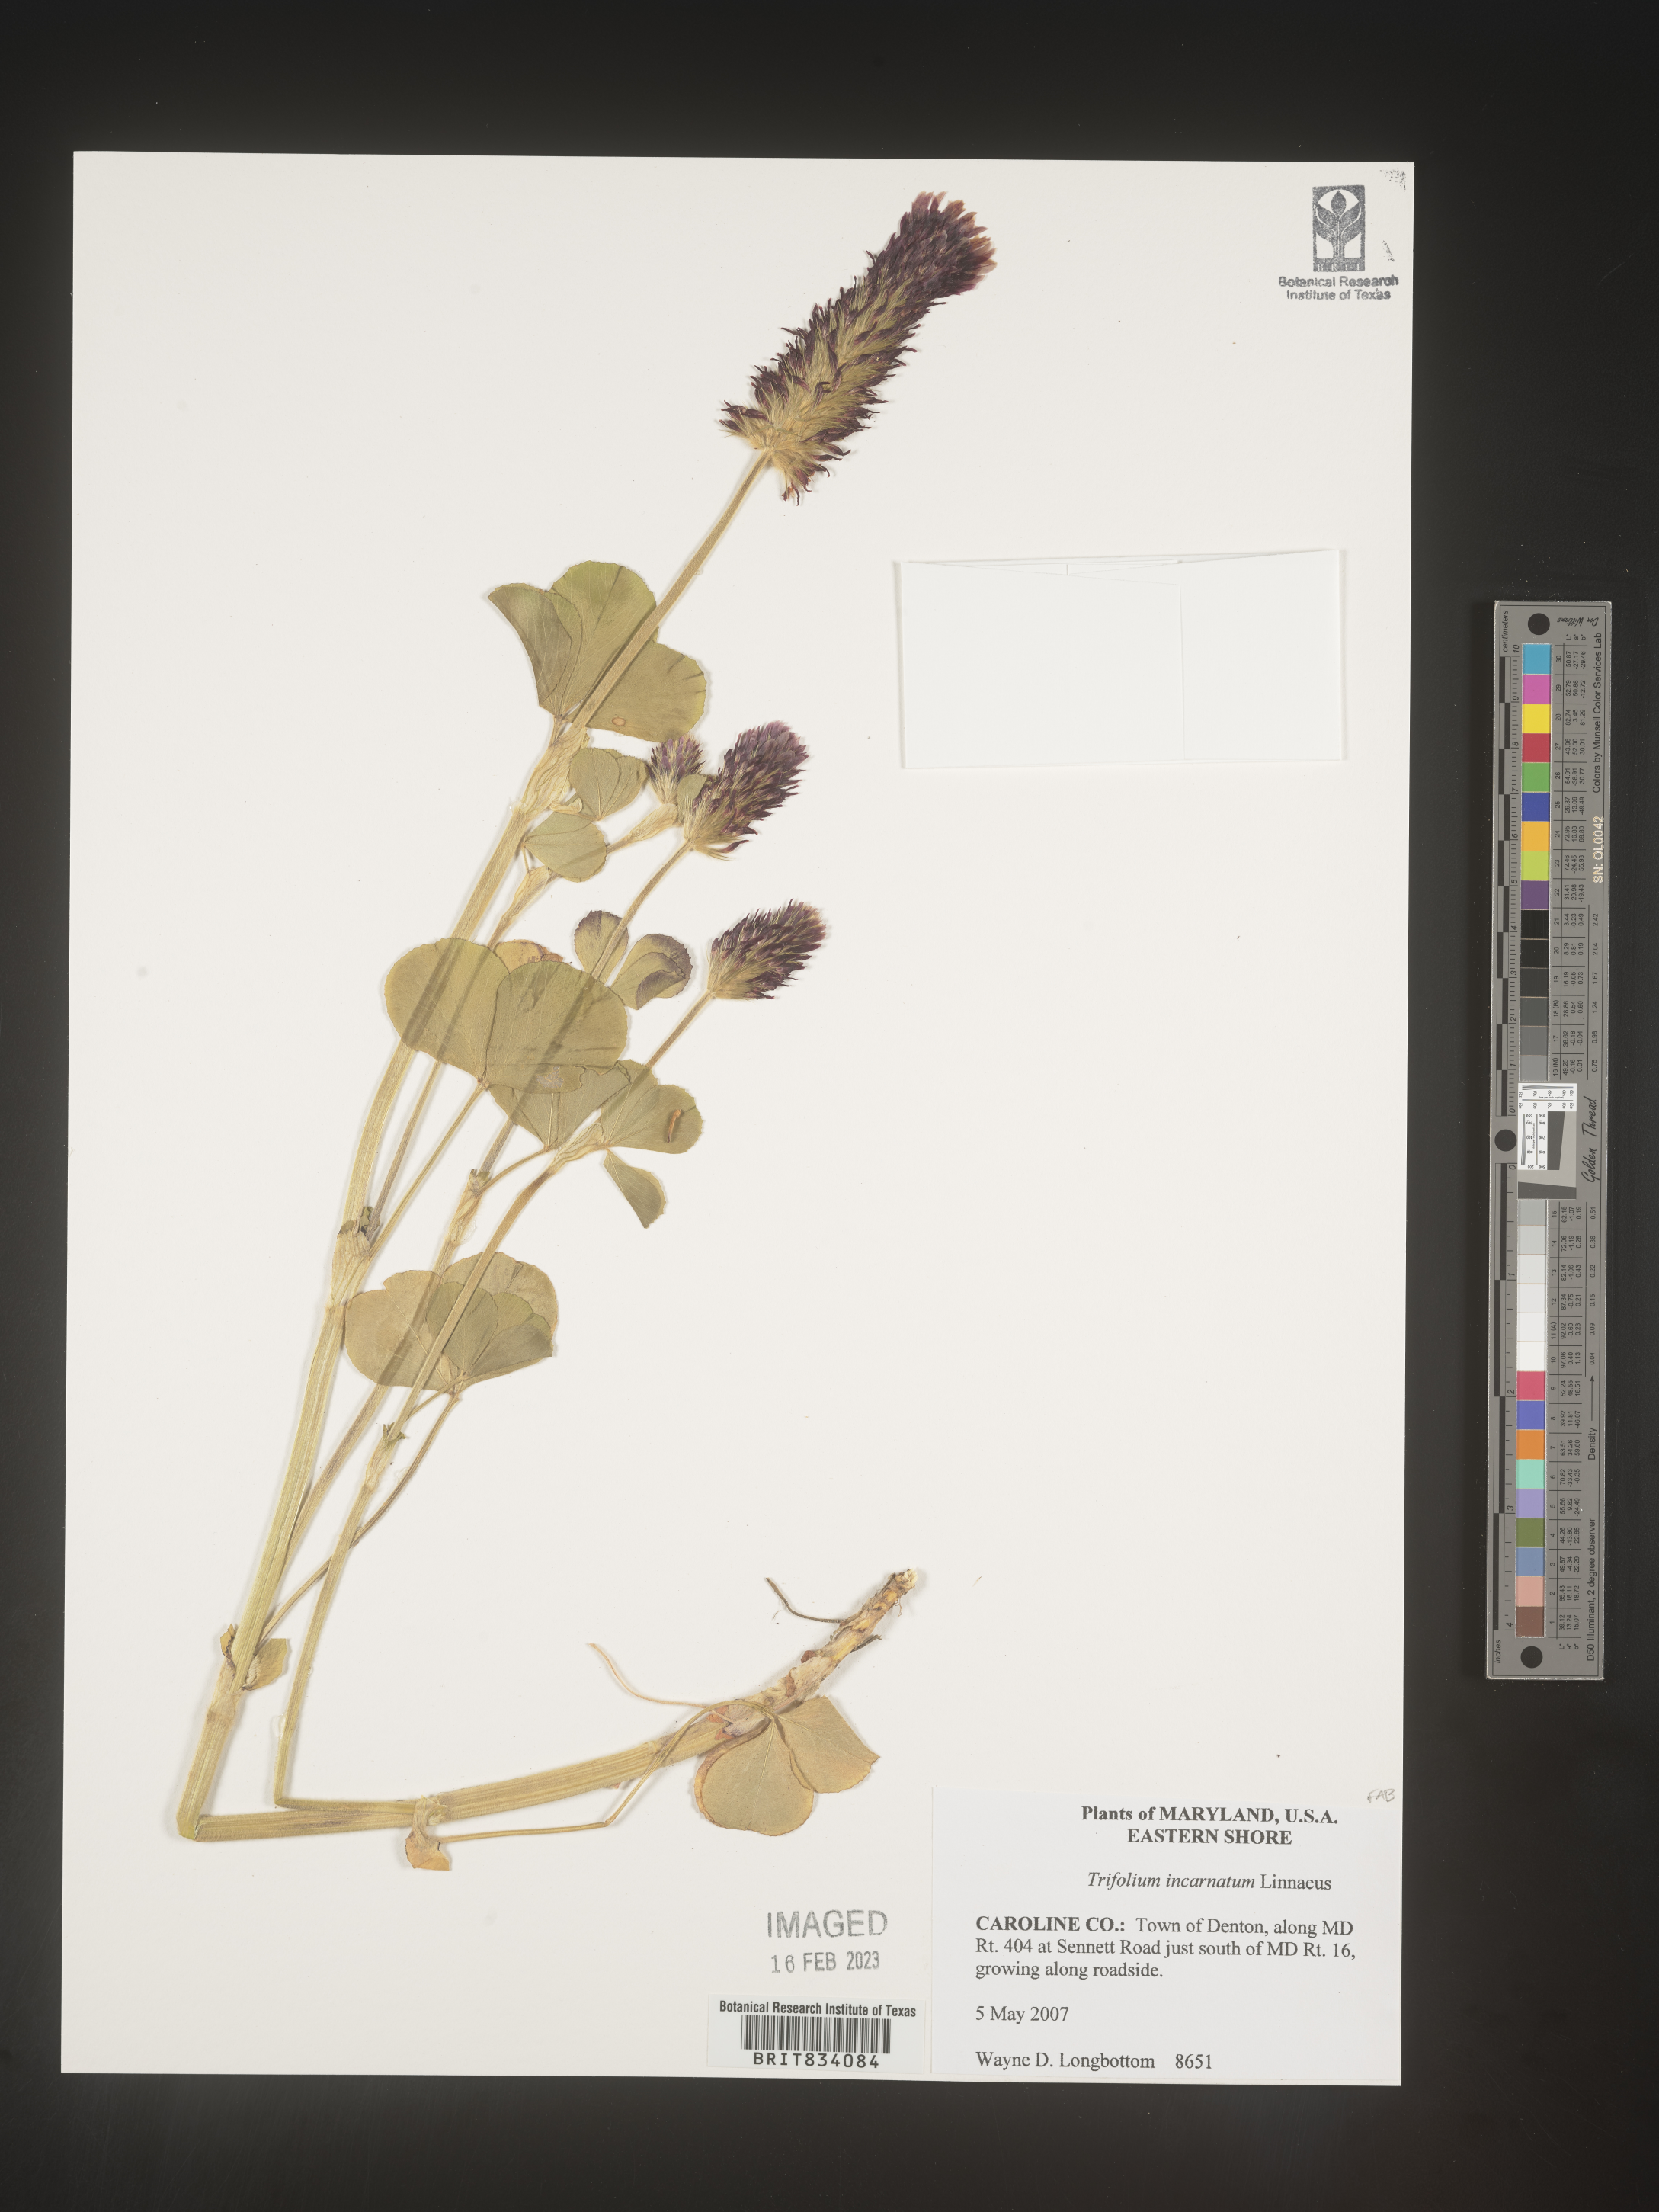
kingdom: Plantae
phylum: Tracheophyta
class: Magnoliopsida
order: Fabales
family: Fabaceae
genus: Trifolium
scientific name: Trifolium incarnatum
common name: Crimson clover
